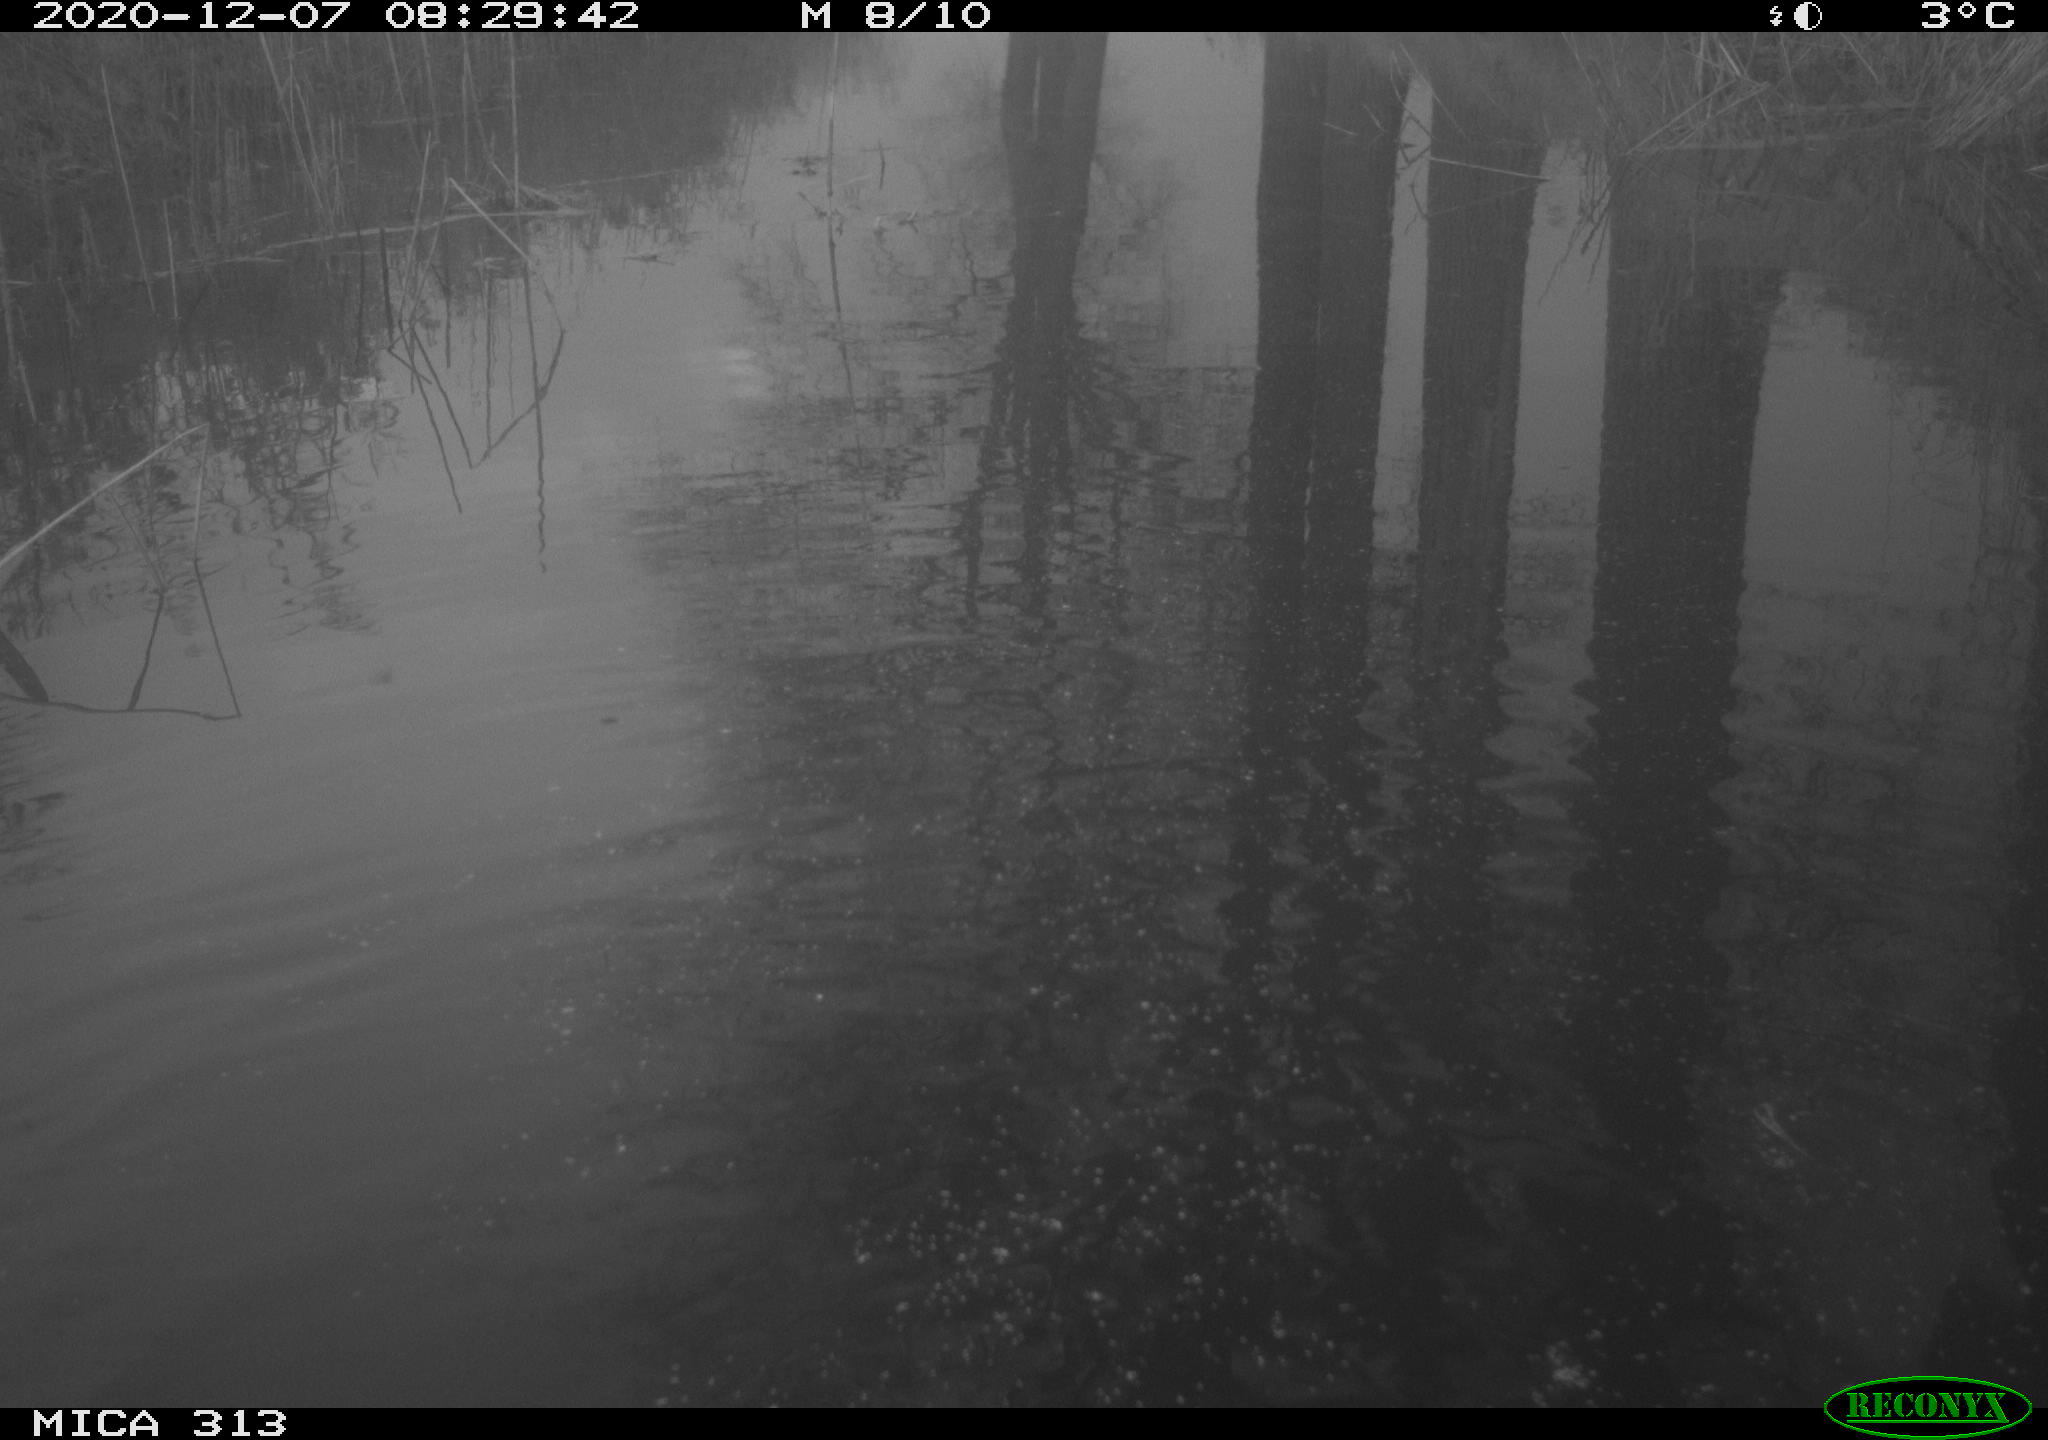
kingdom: Animalia
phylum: Chordata
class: Aves
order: Gruiformes
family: Rallidae
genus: Gallinula
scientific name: Gallinula chloropus
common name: Common moorhen
